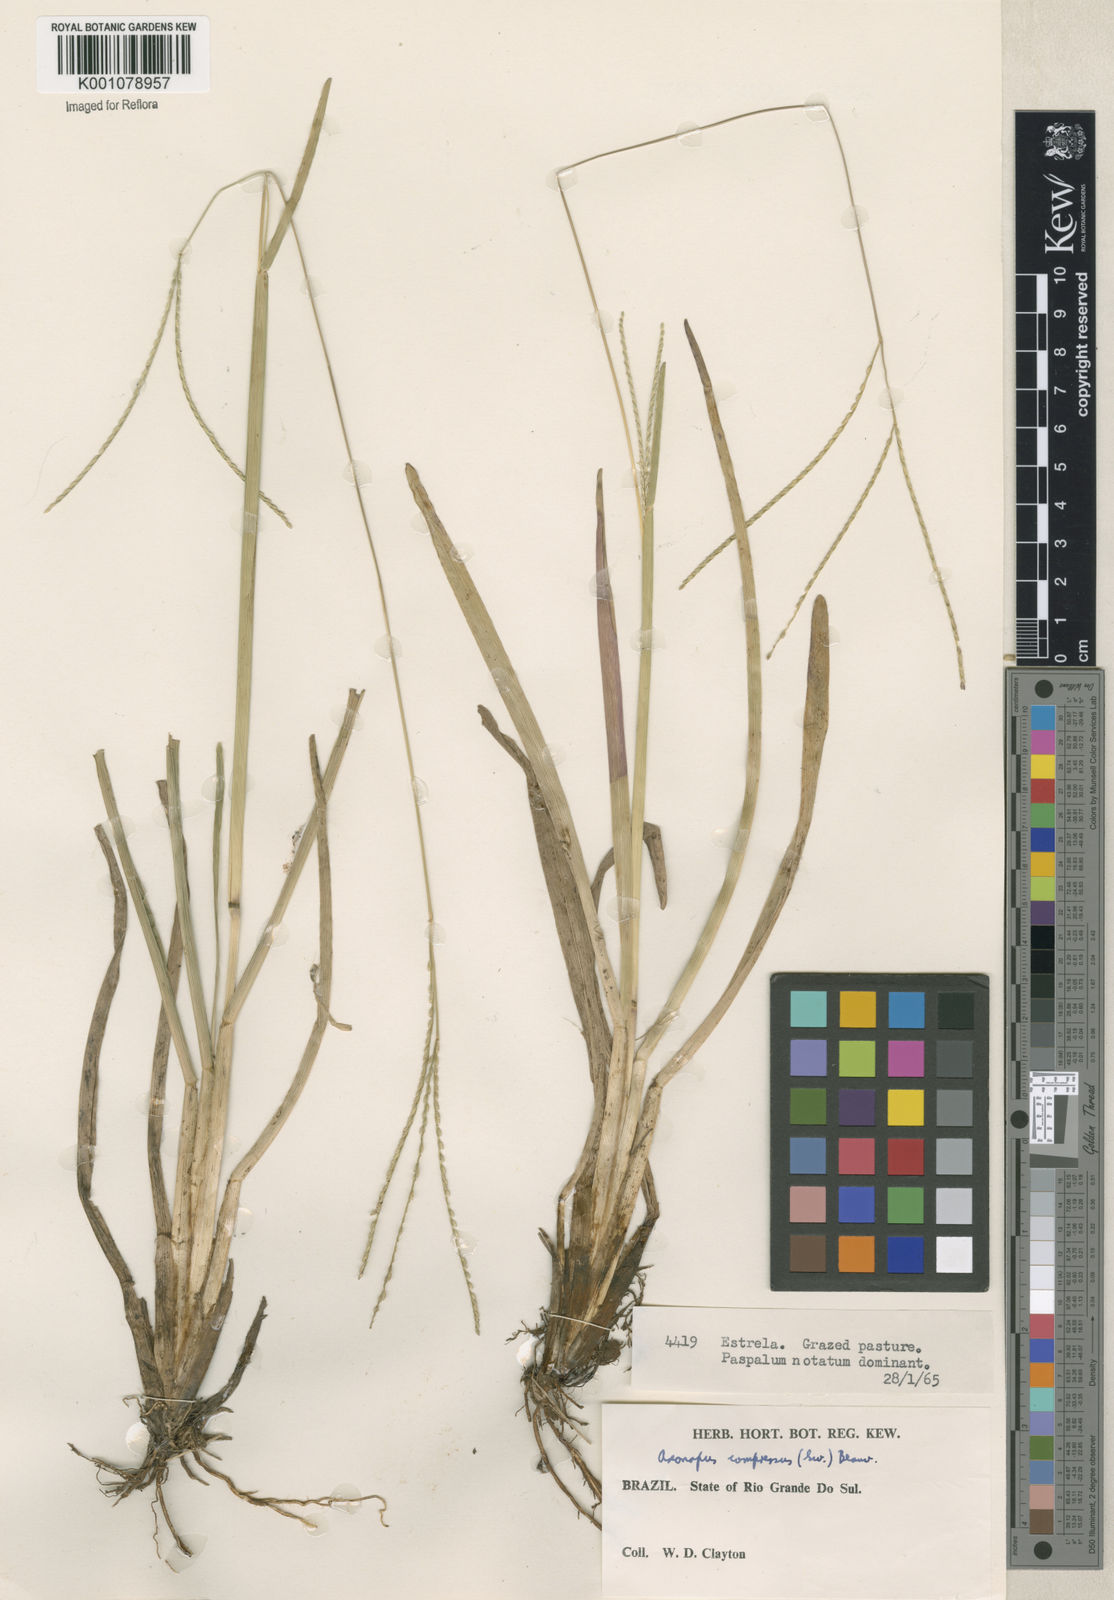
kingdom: Plantae
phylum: Tracheophyta
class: Liliopsida
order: Poales
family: Poaceae
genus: Axonopus
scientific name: Axonopus compressus
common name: American carpet grass
